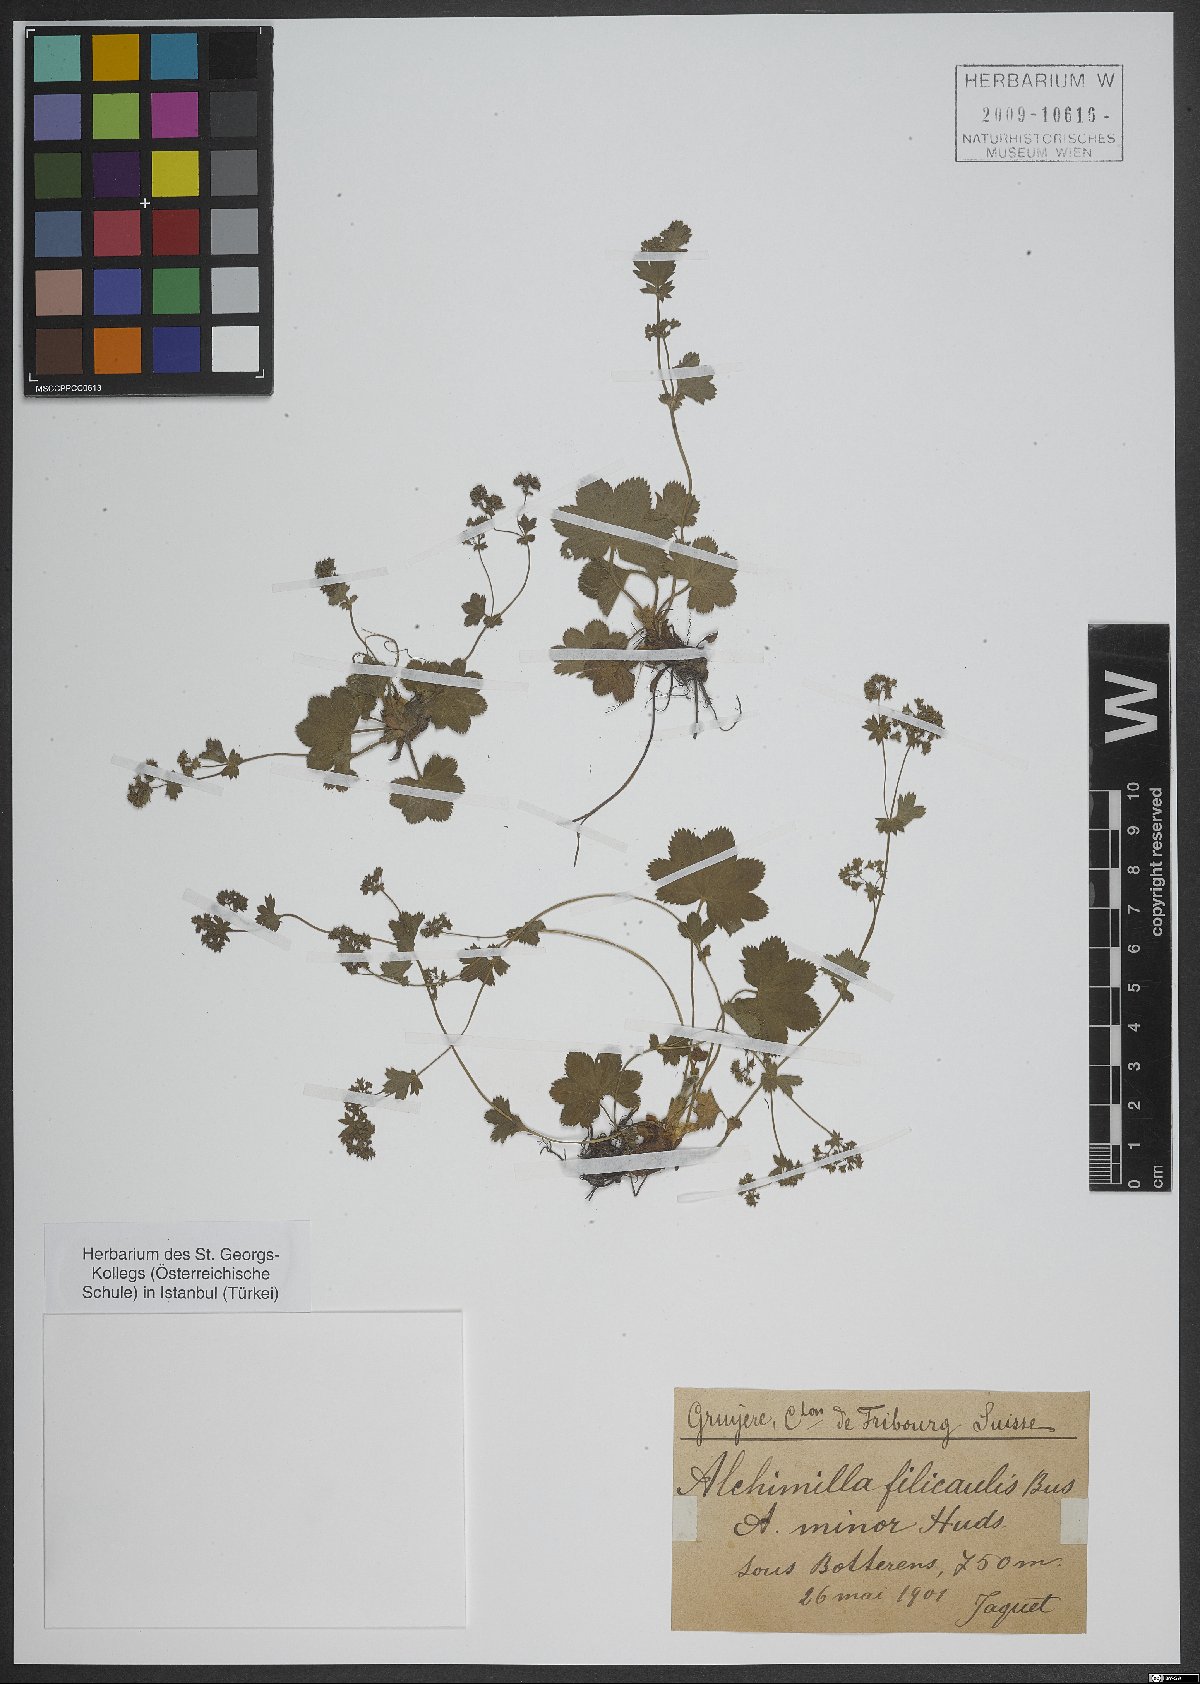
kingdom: Plantae
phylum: Tracheophyta
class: Magnoliopsida
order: Rosales
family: Rosaceae
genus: Alchemilla
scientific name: Alchemilla filicaulis
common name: Hairy lady's-mantle
